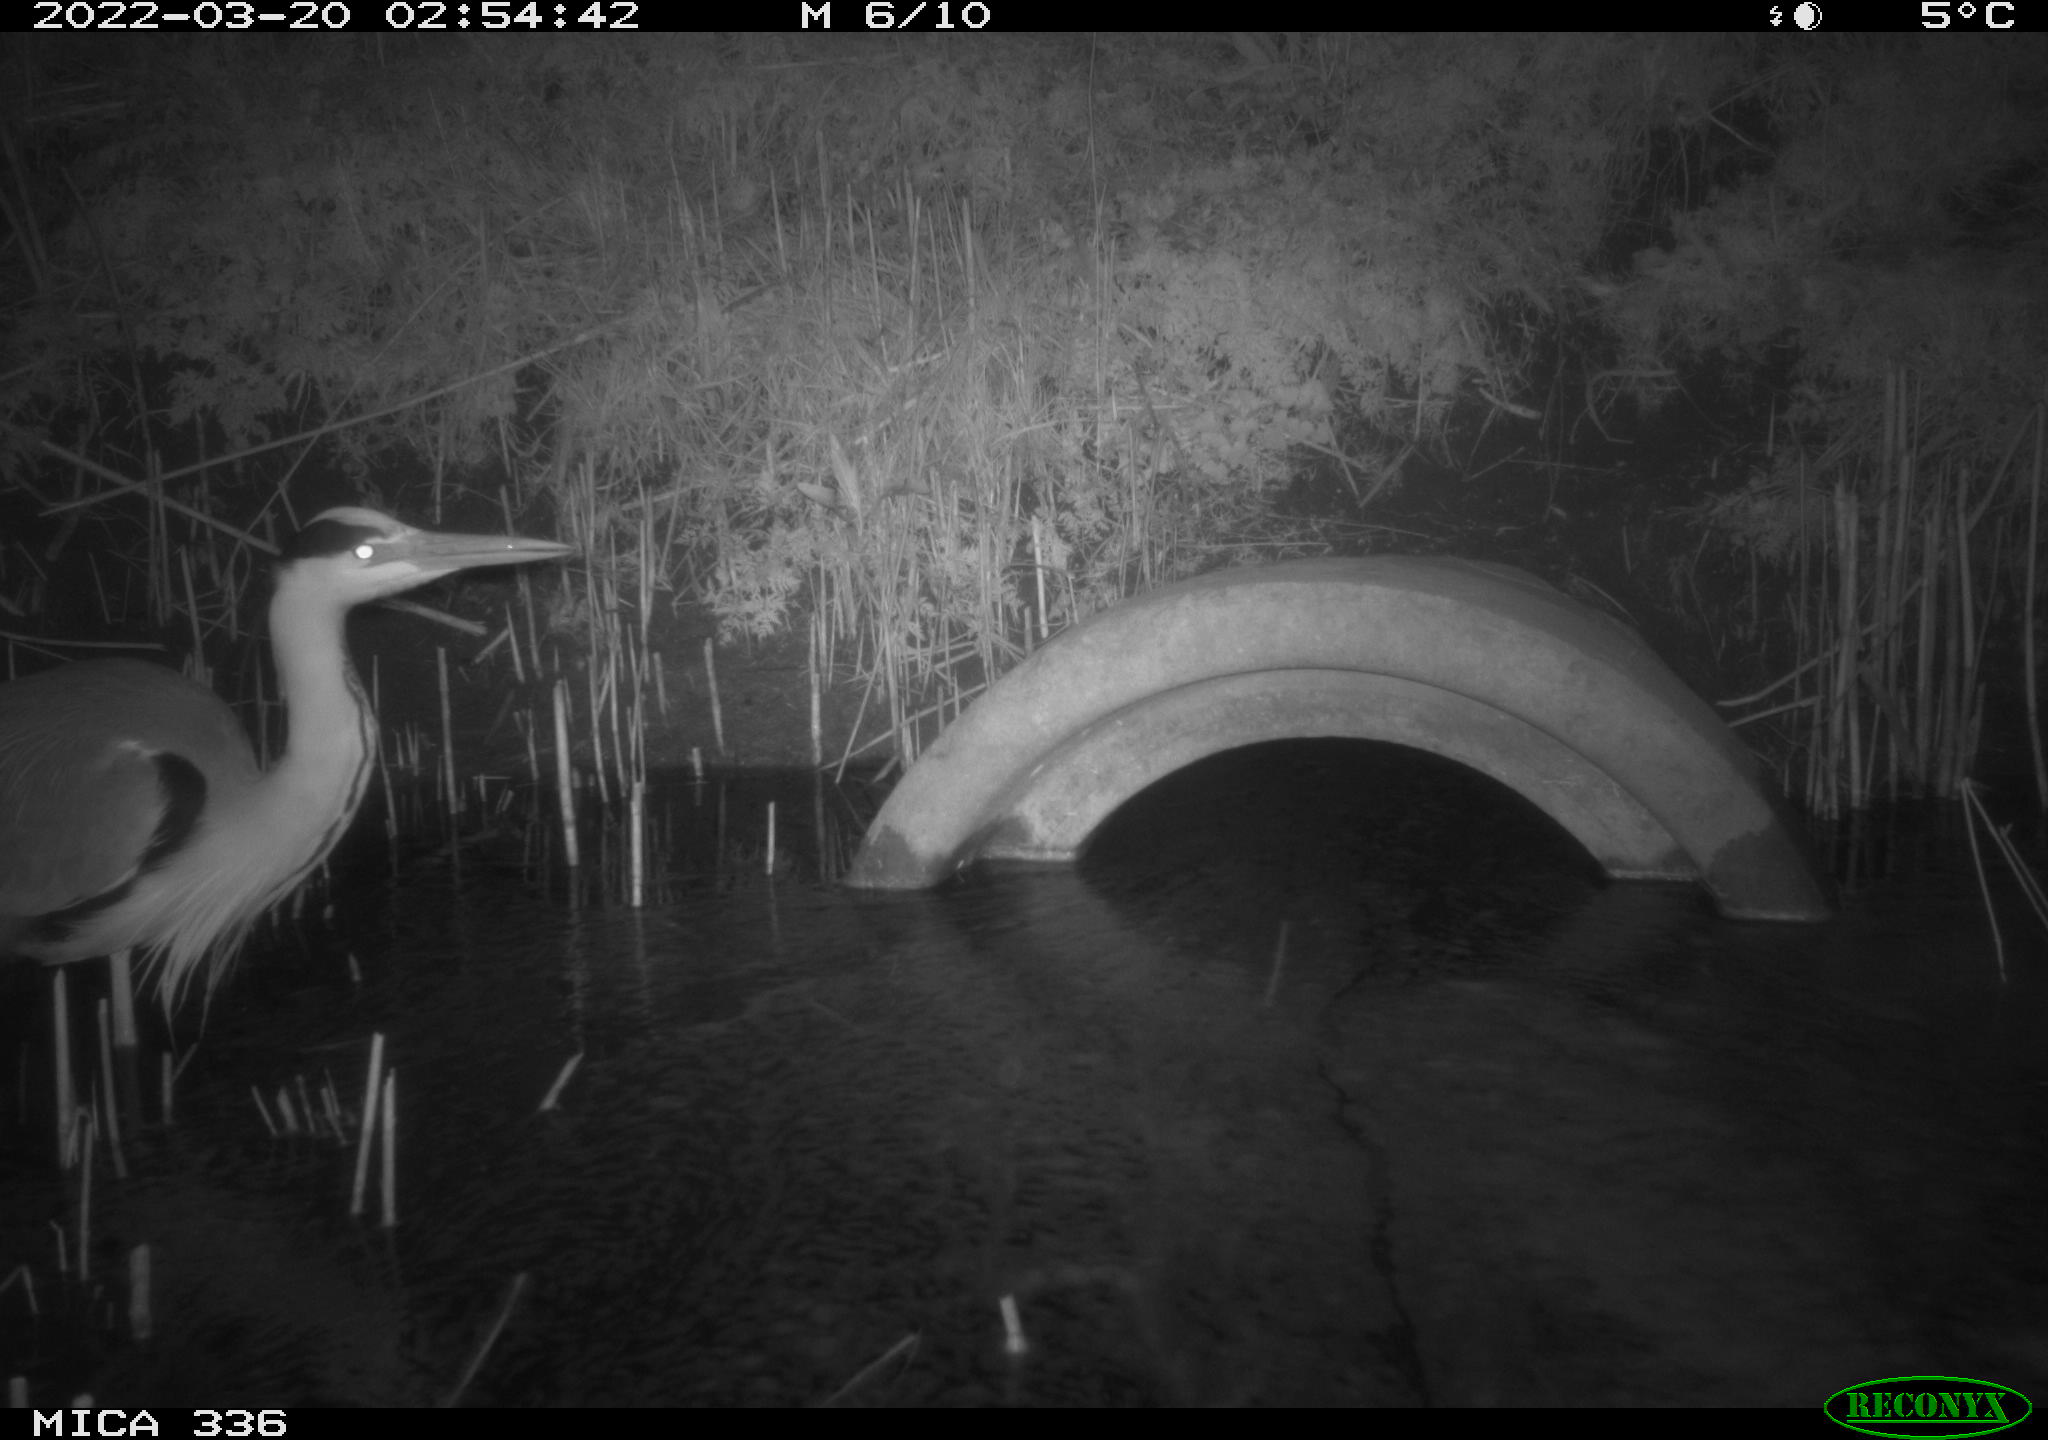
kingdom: Animalia
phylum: Chordata
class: Aves
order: Pelecaniformes
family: Ardeidae
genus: Ardea
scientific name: Ardea cinerea
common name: Grey heron
